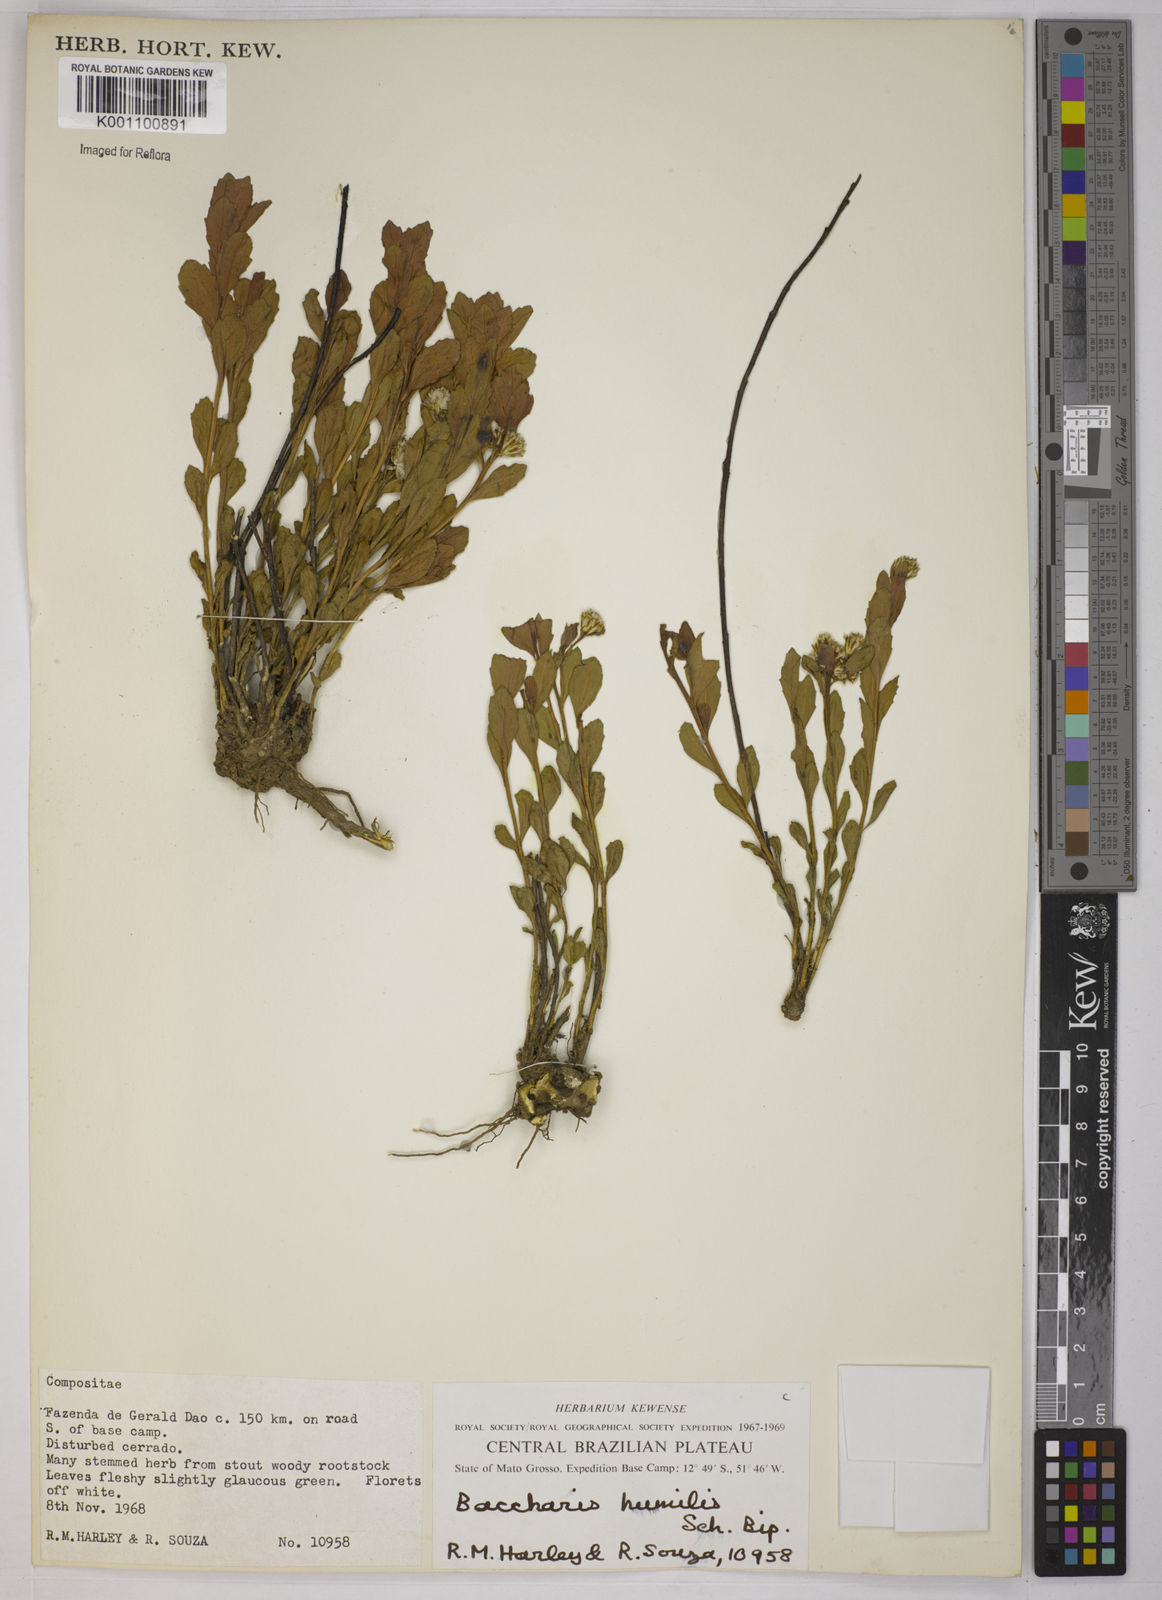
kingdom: Plantae
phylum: Tracheophyta
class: Magnoliopsida
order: Asterales
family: Asteraceae
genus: Baccharis
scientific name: Baccharis humilis
